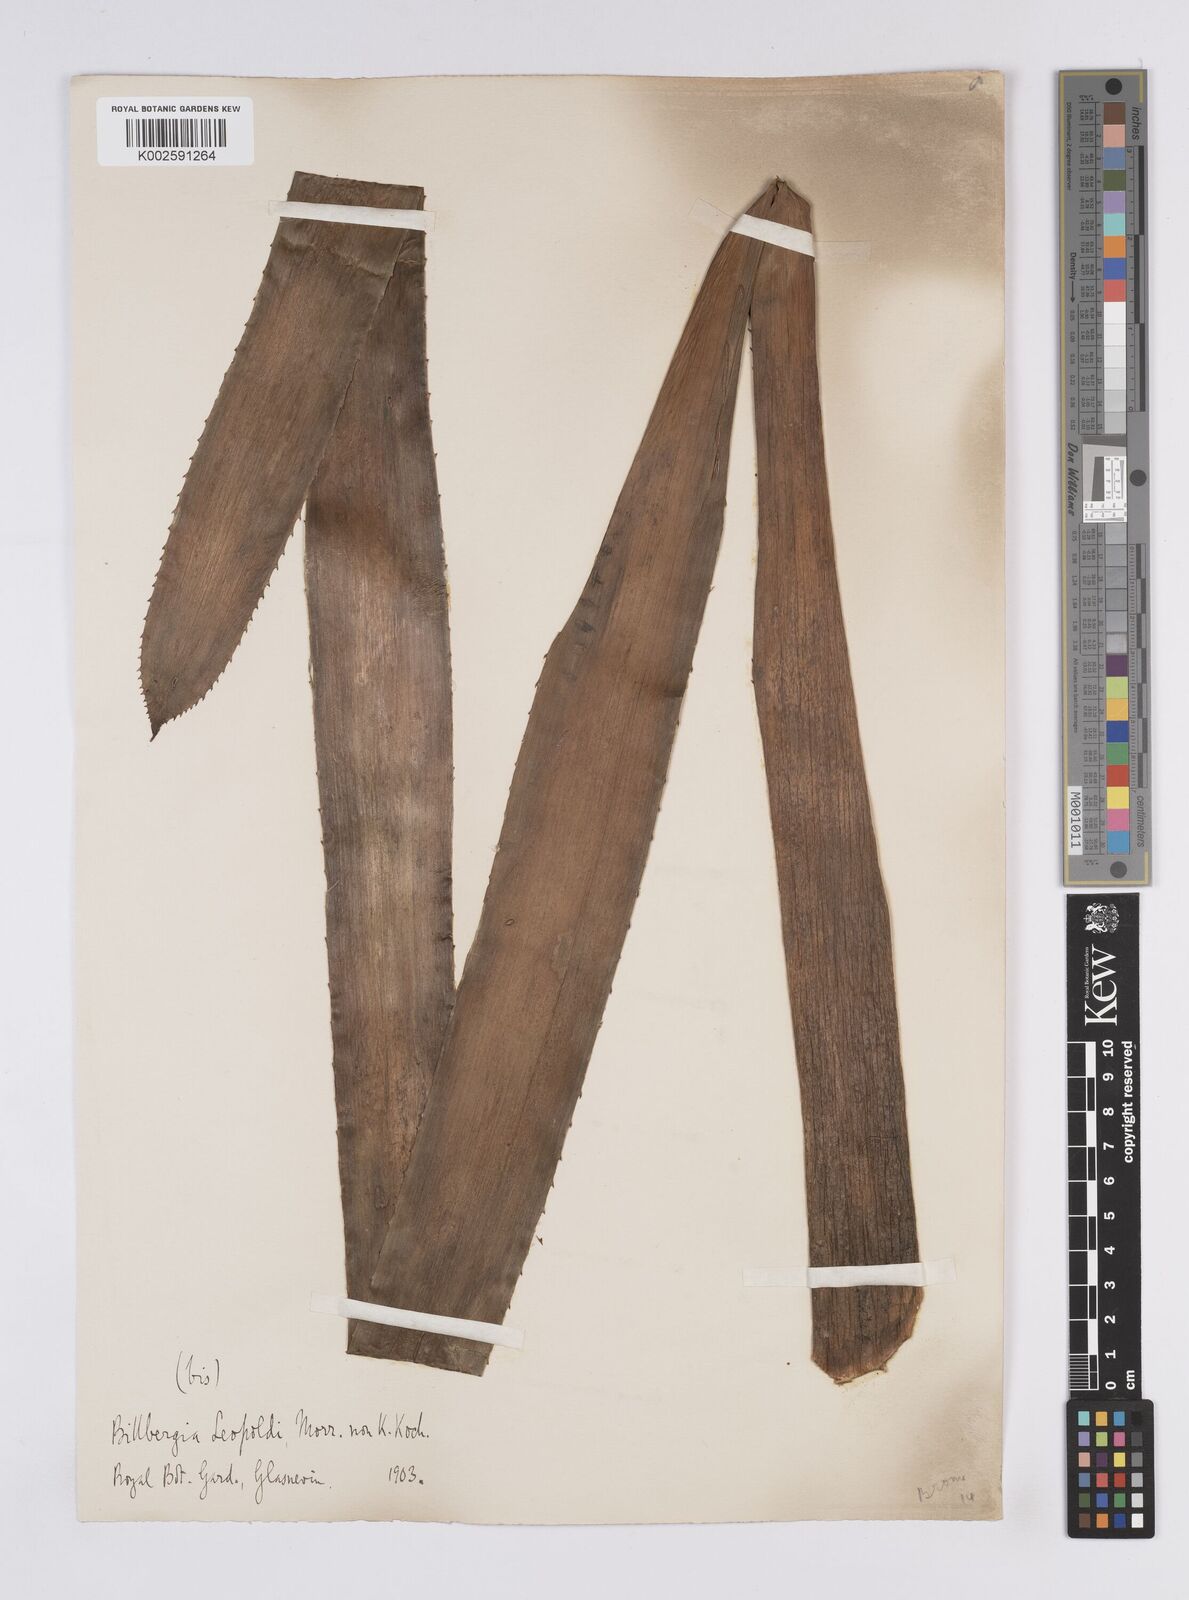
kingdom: Plantae
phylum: Tracheophyta
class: Liliopsida
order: Poales
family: Bromeliaceae
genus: Billbergia
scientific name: Billbergia brasiliensis
